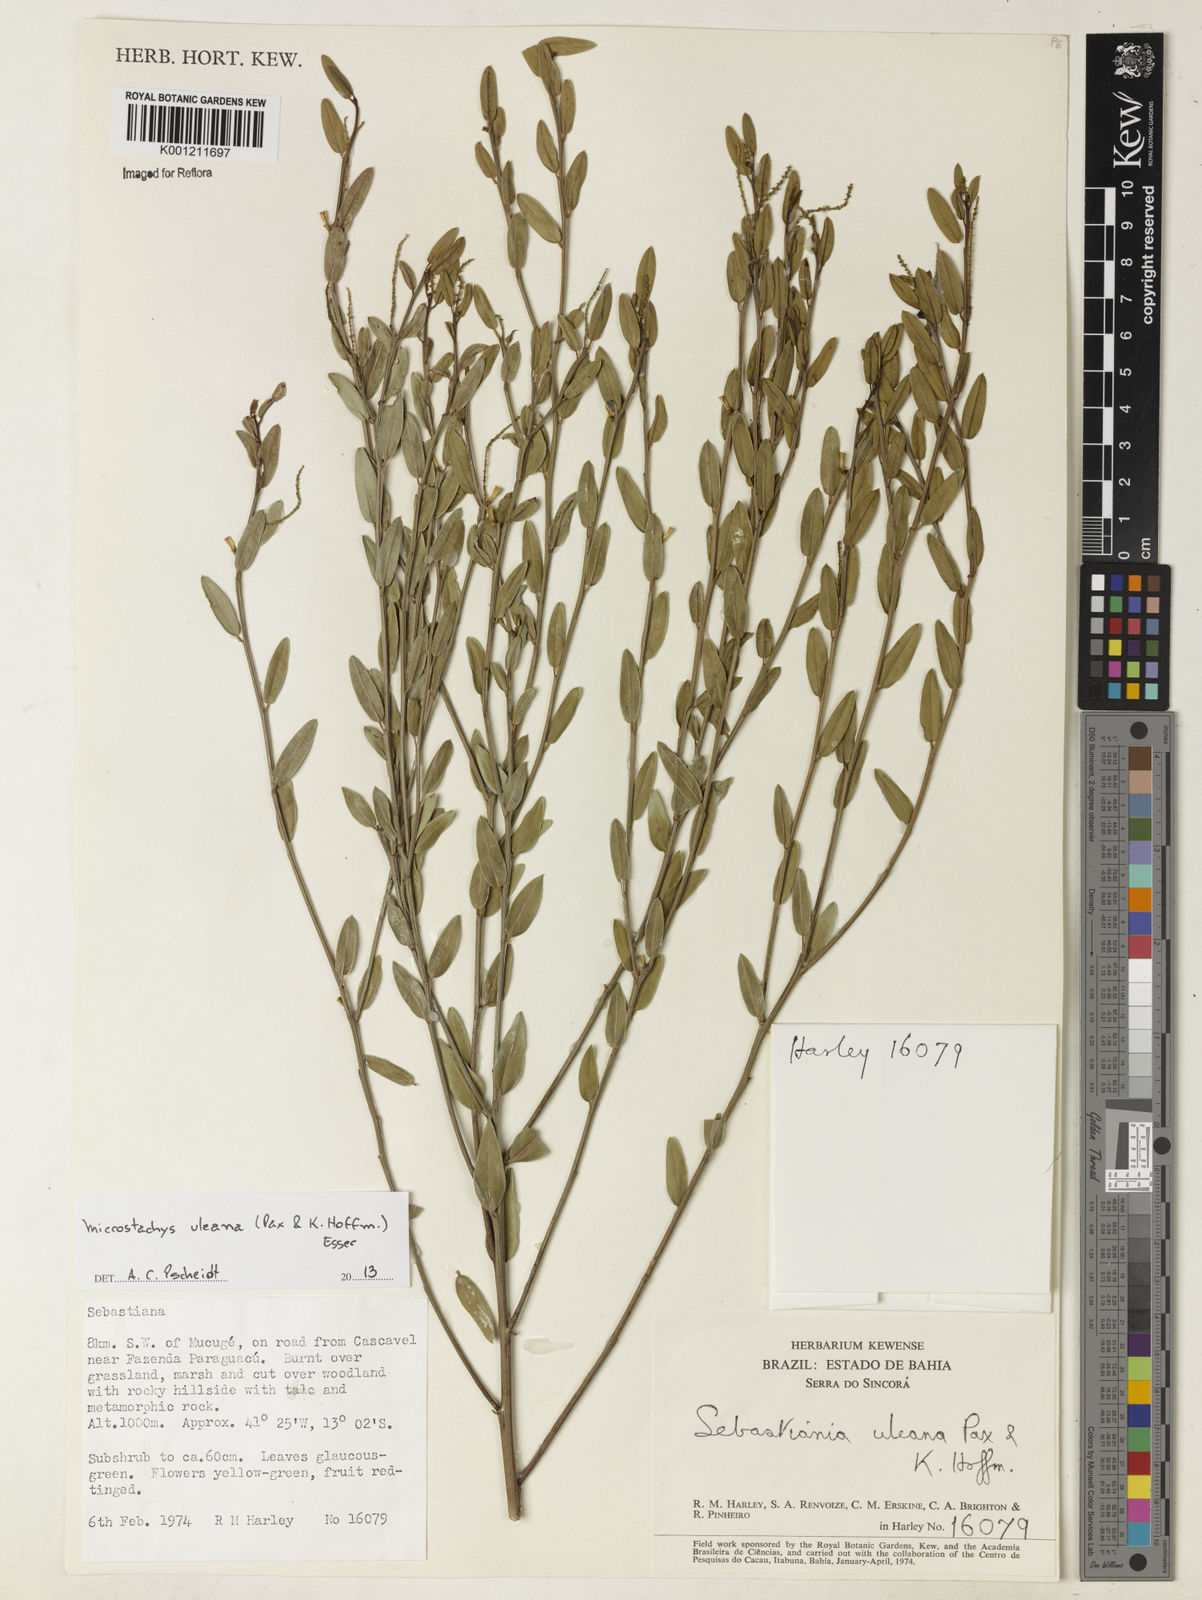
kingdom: Plantae
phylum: Tracheophyta
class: Magnoliopsida
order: Malpighiales
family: Euphorbiaceae
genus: Microstachys
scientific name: Microstachys uleana
